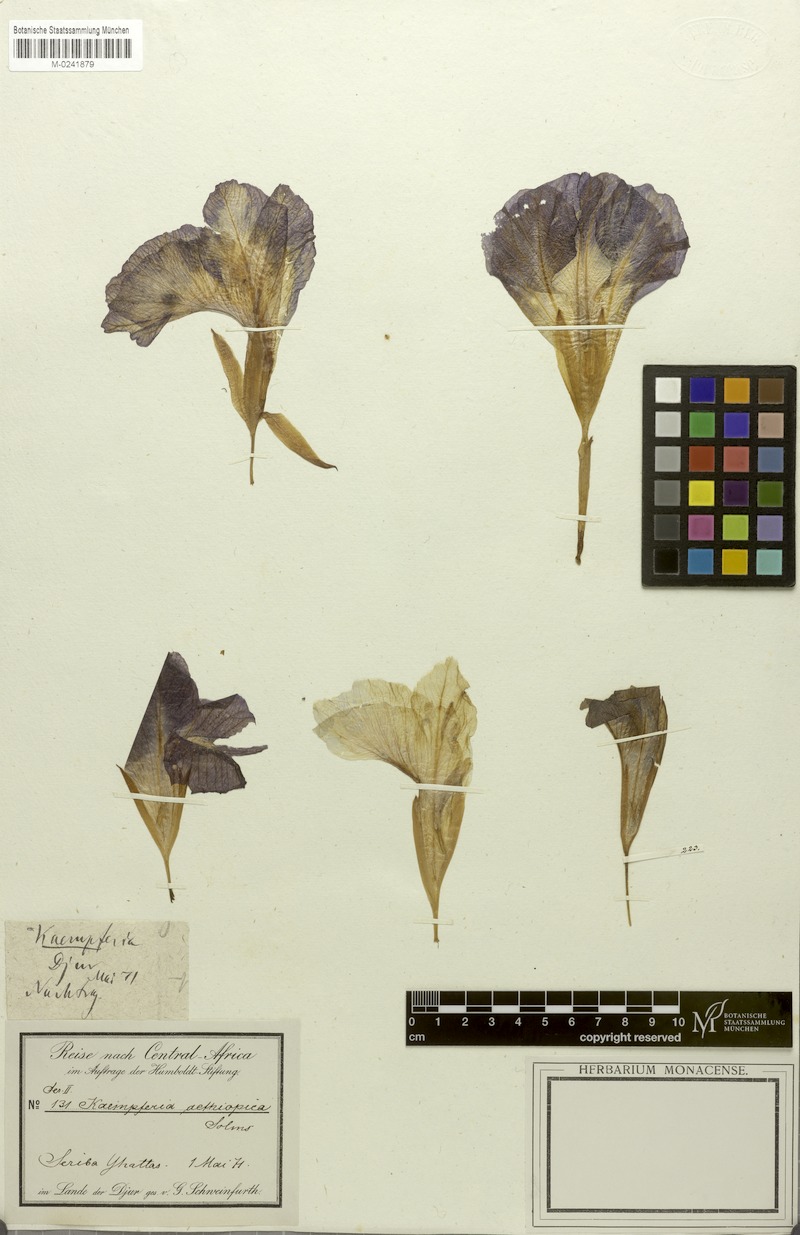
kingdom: Plantae
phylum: Tracheophyta
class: Liliopsida
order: Zingiberales
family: Zingiberaceae
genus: Siphonochilus
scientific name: Siphonochilus aethiopicus
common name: African-ginger
